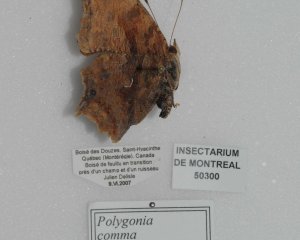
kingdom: Animalia
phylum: Arthropoda
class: Insecta
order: Lepidoptera
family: Nymphalidae
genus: Polygonia
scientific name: Polygonia comma
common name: Eastern Comma
